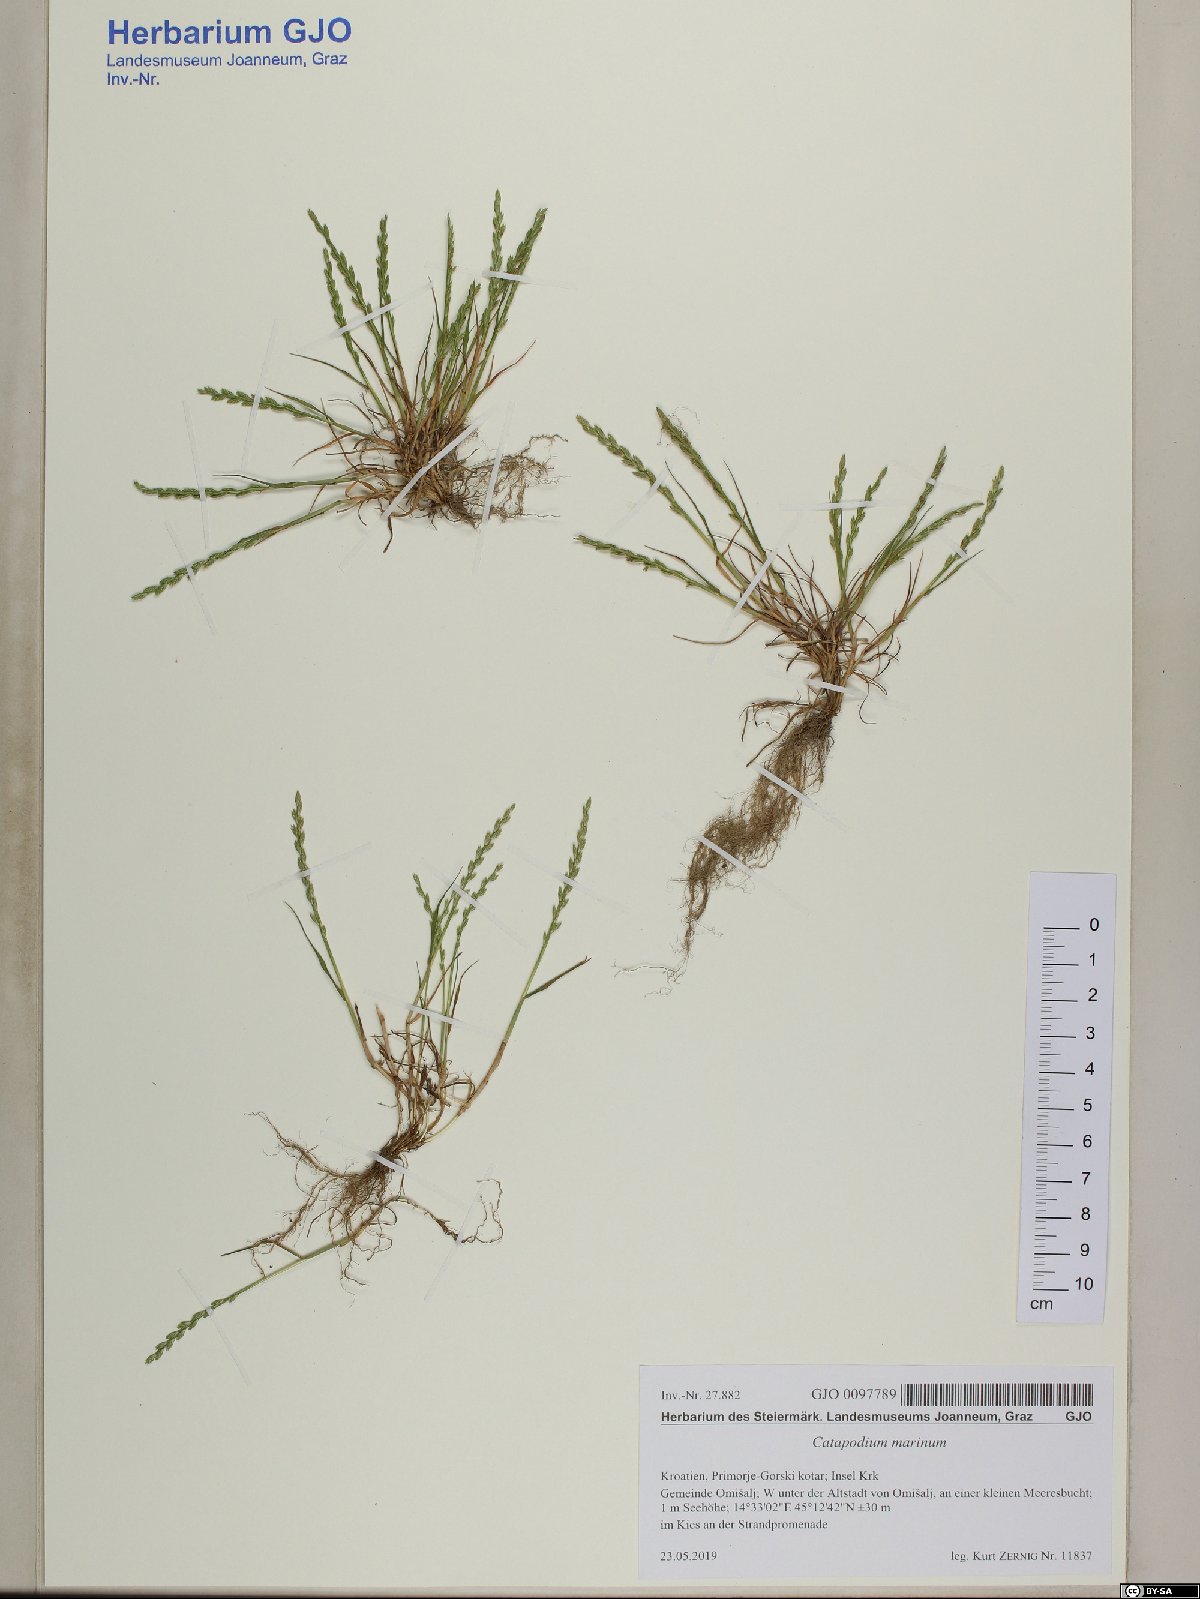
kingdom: Plantae
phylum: Tracheophyta
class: Liliopsida
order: Poales
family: Poaceae
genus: Catapodium
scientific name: Catapodium marinum
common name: Sea fern-grass
